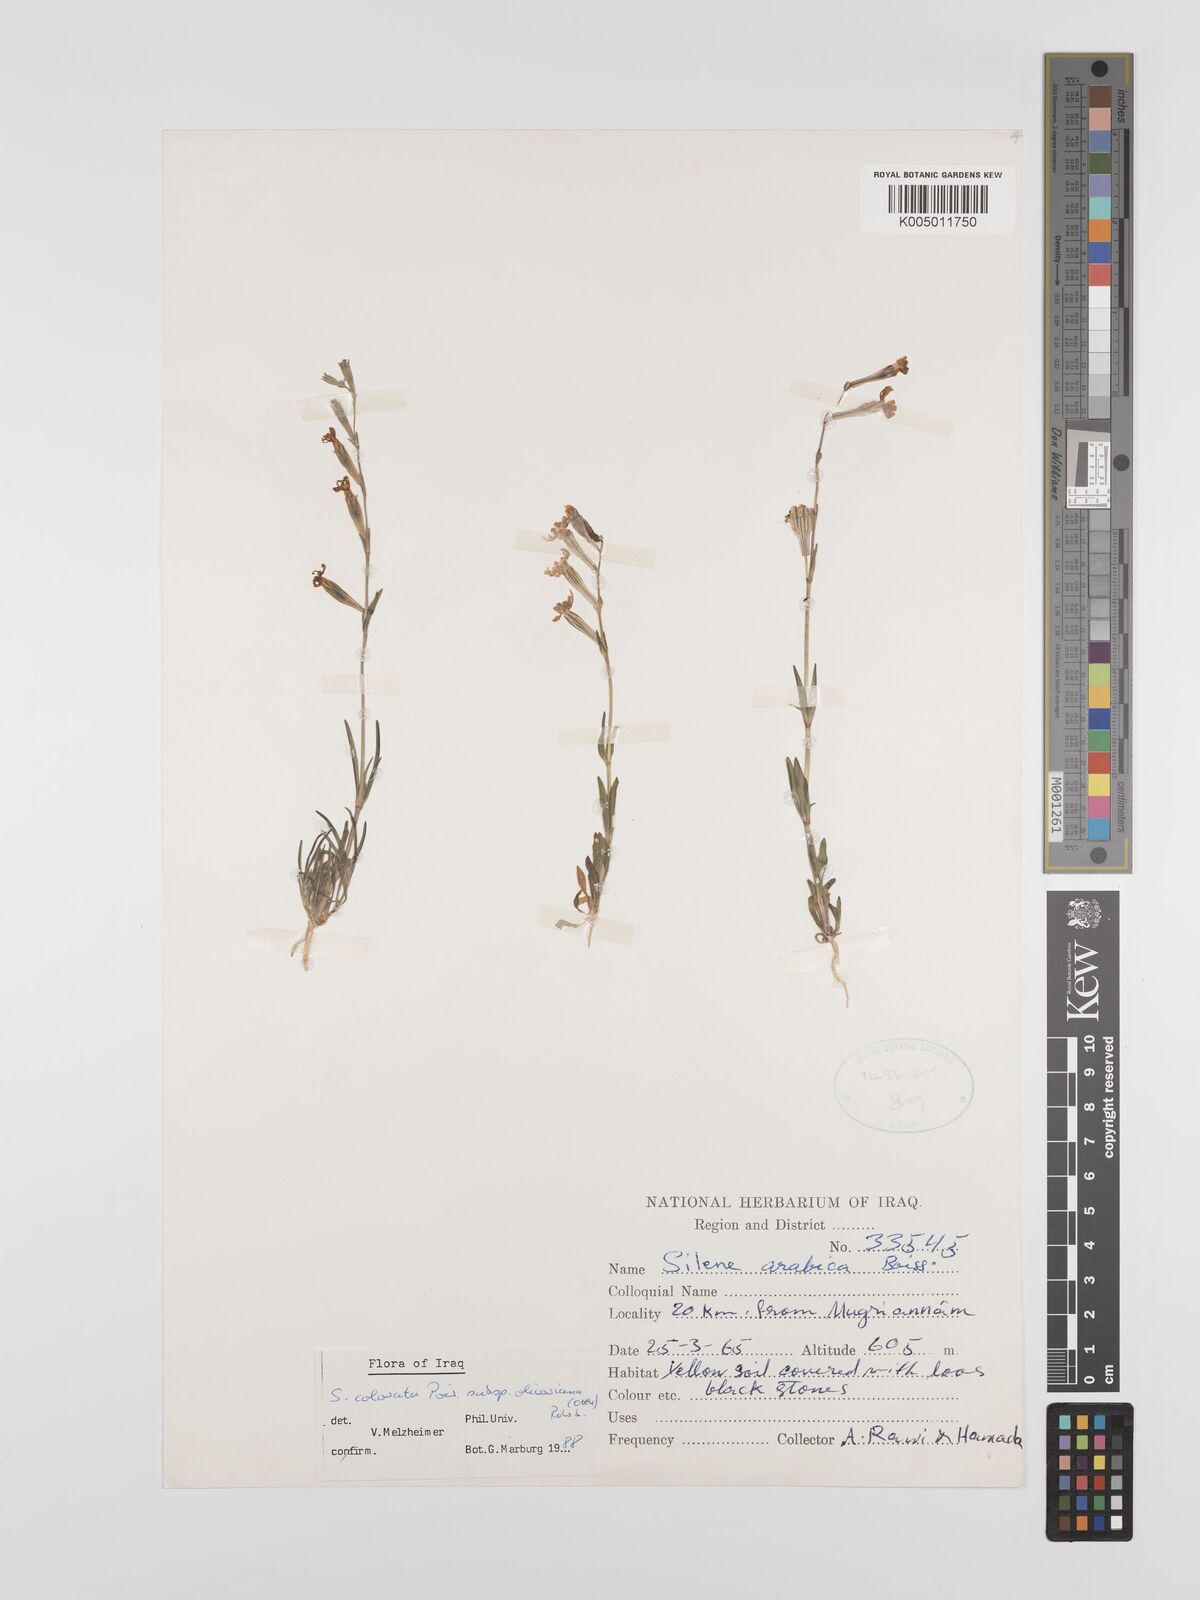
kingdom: Plantae
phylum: Tracheophyta
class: Magnoliopsida
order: Caryophyllales
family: Caryophyllaceae
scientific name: Caryophyllaceae
